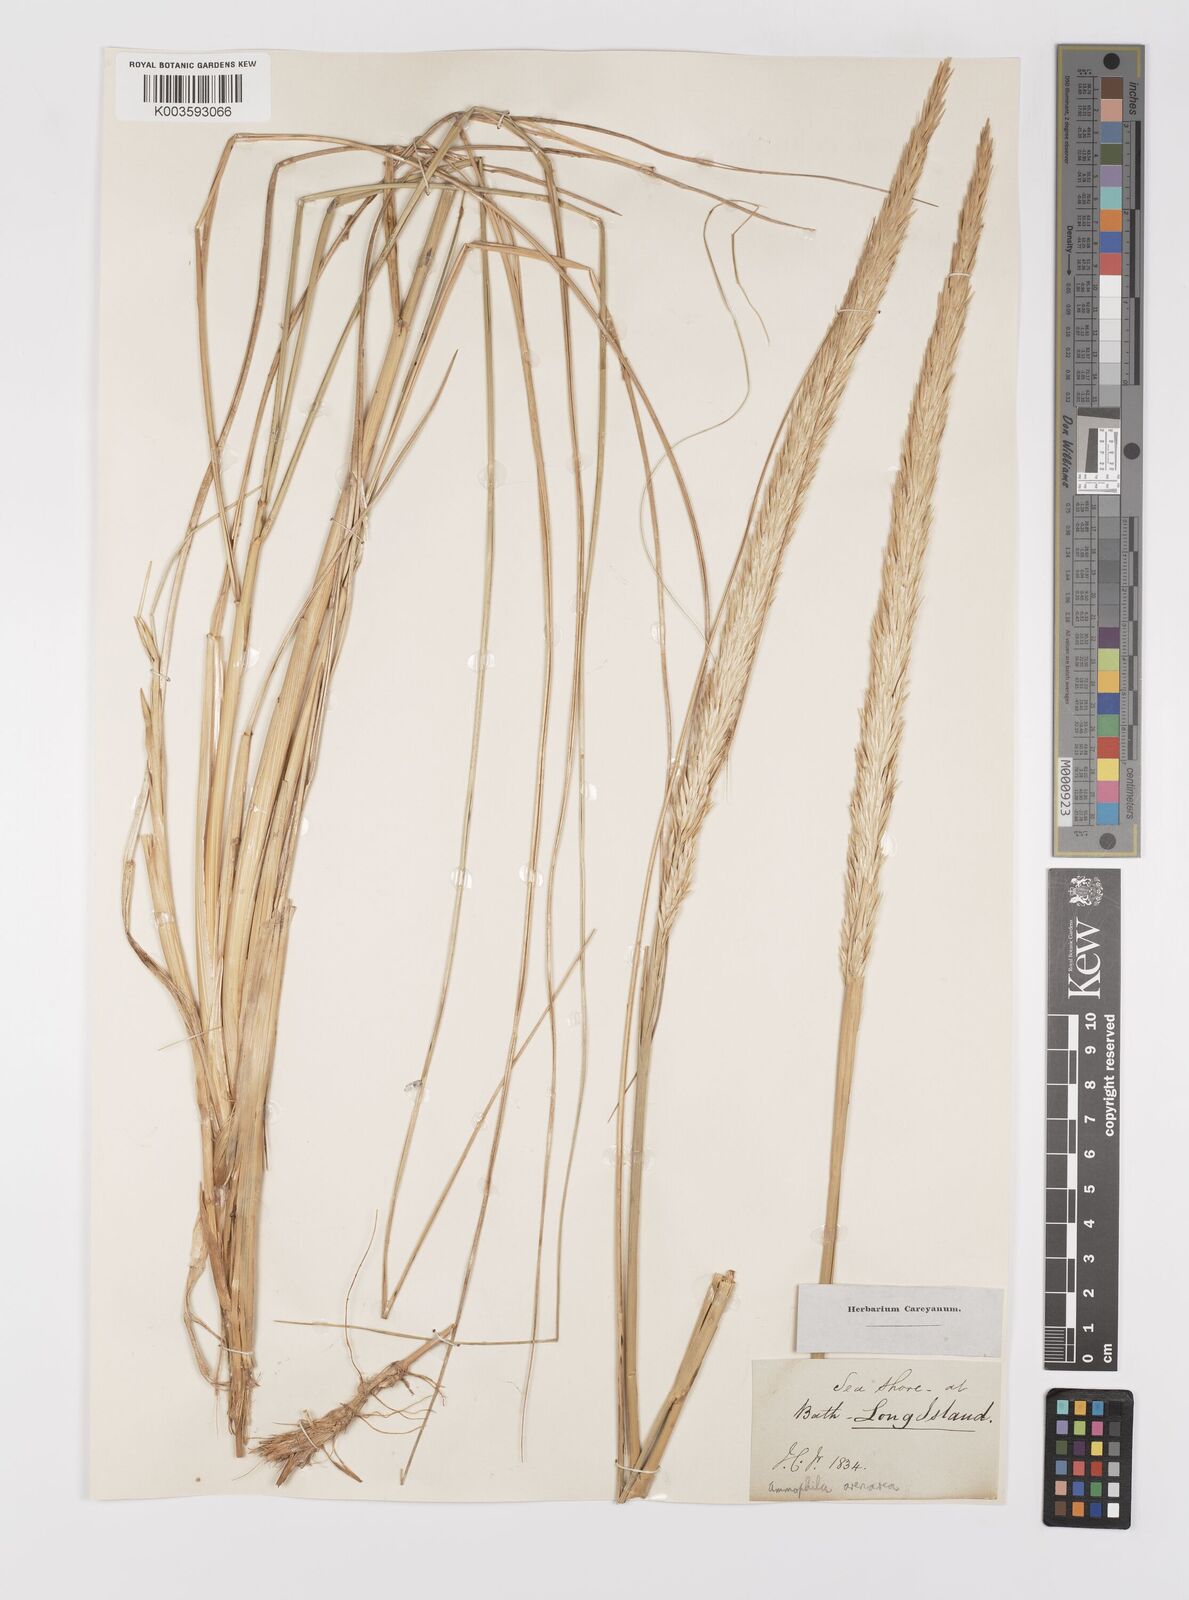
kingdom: Plantae
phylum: Tracheophyta
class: Liliopsida
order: Poales
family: Poaceae
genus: Calamagrostis
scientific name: Calamagrostis breviligulata
